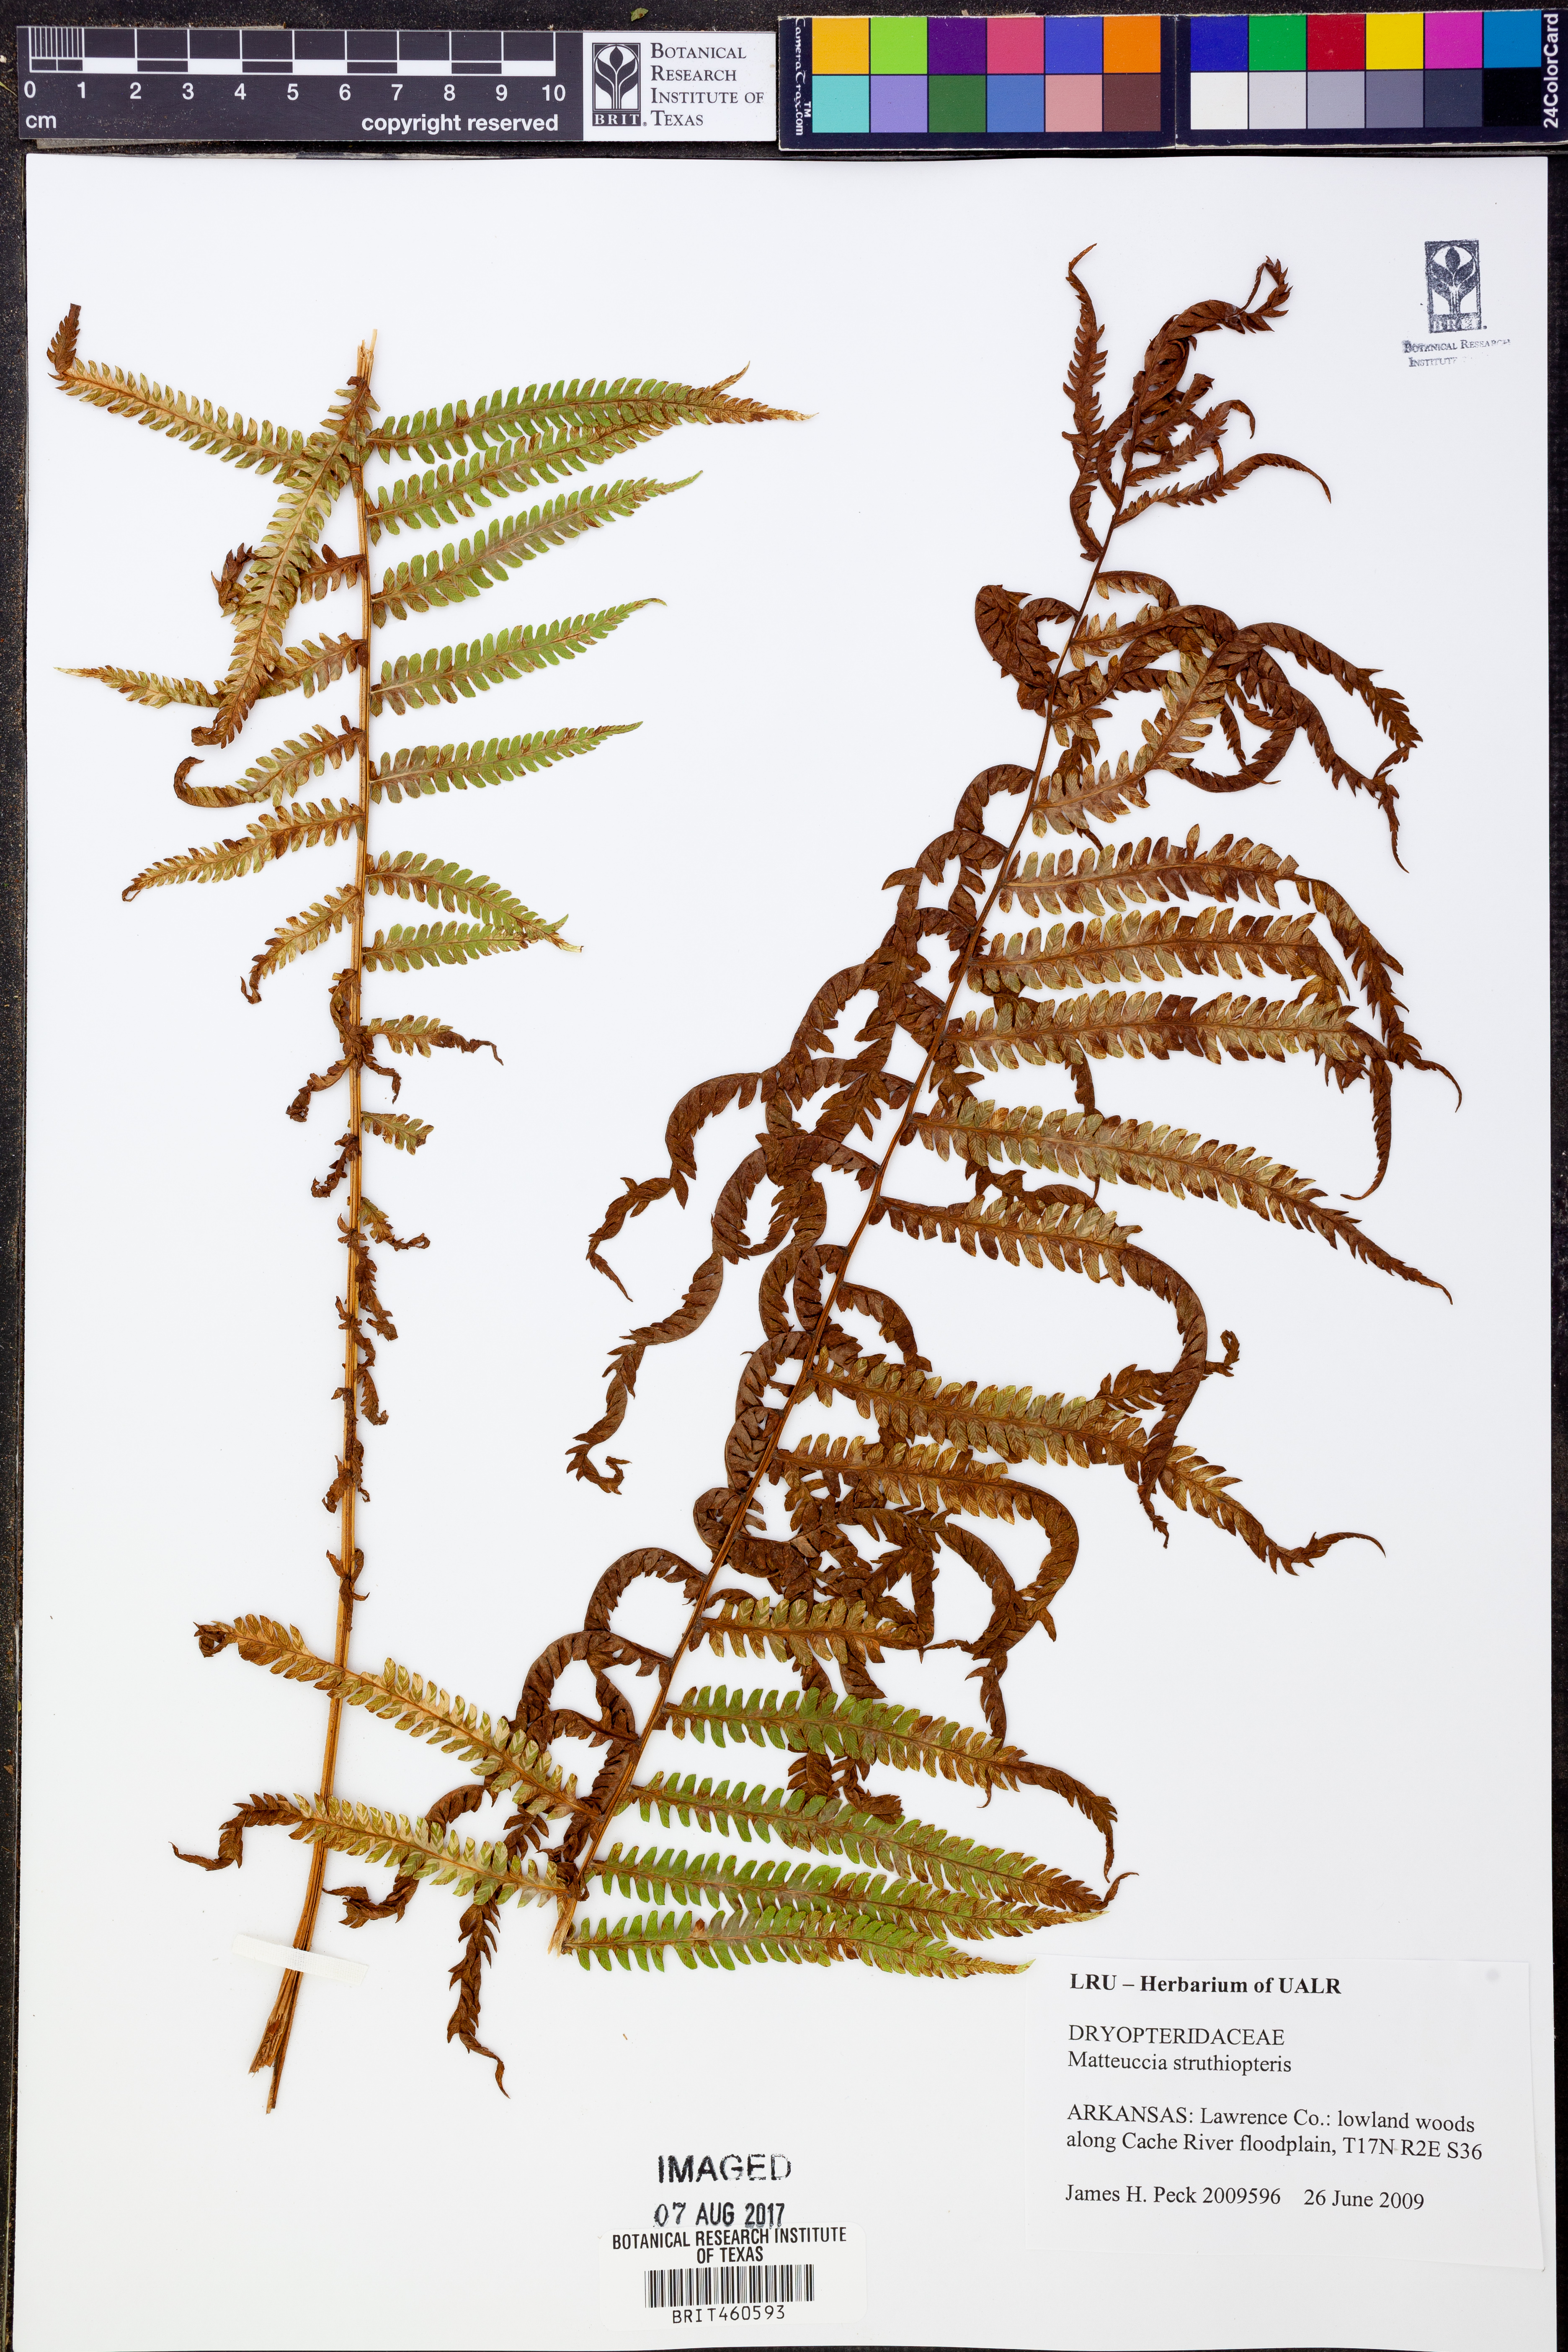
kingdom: Plantae
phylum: Tracheophyta
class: Polypodiopsida
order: Polypodiales
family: Onocleaceae
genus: Matteuccia
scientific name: Matteuccia struthiopteris
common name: Ostrich fern
